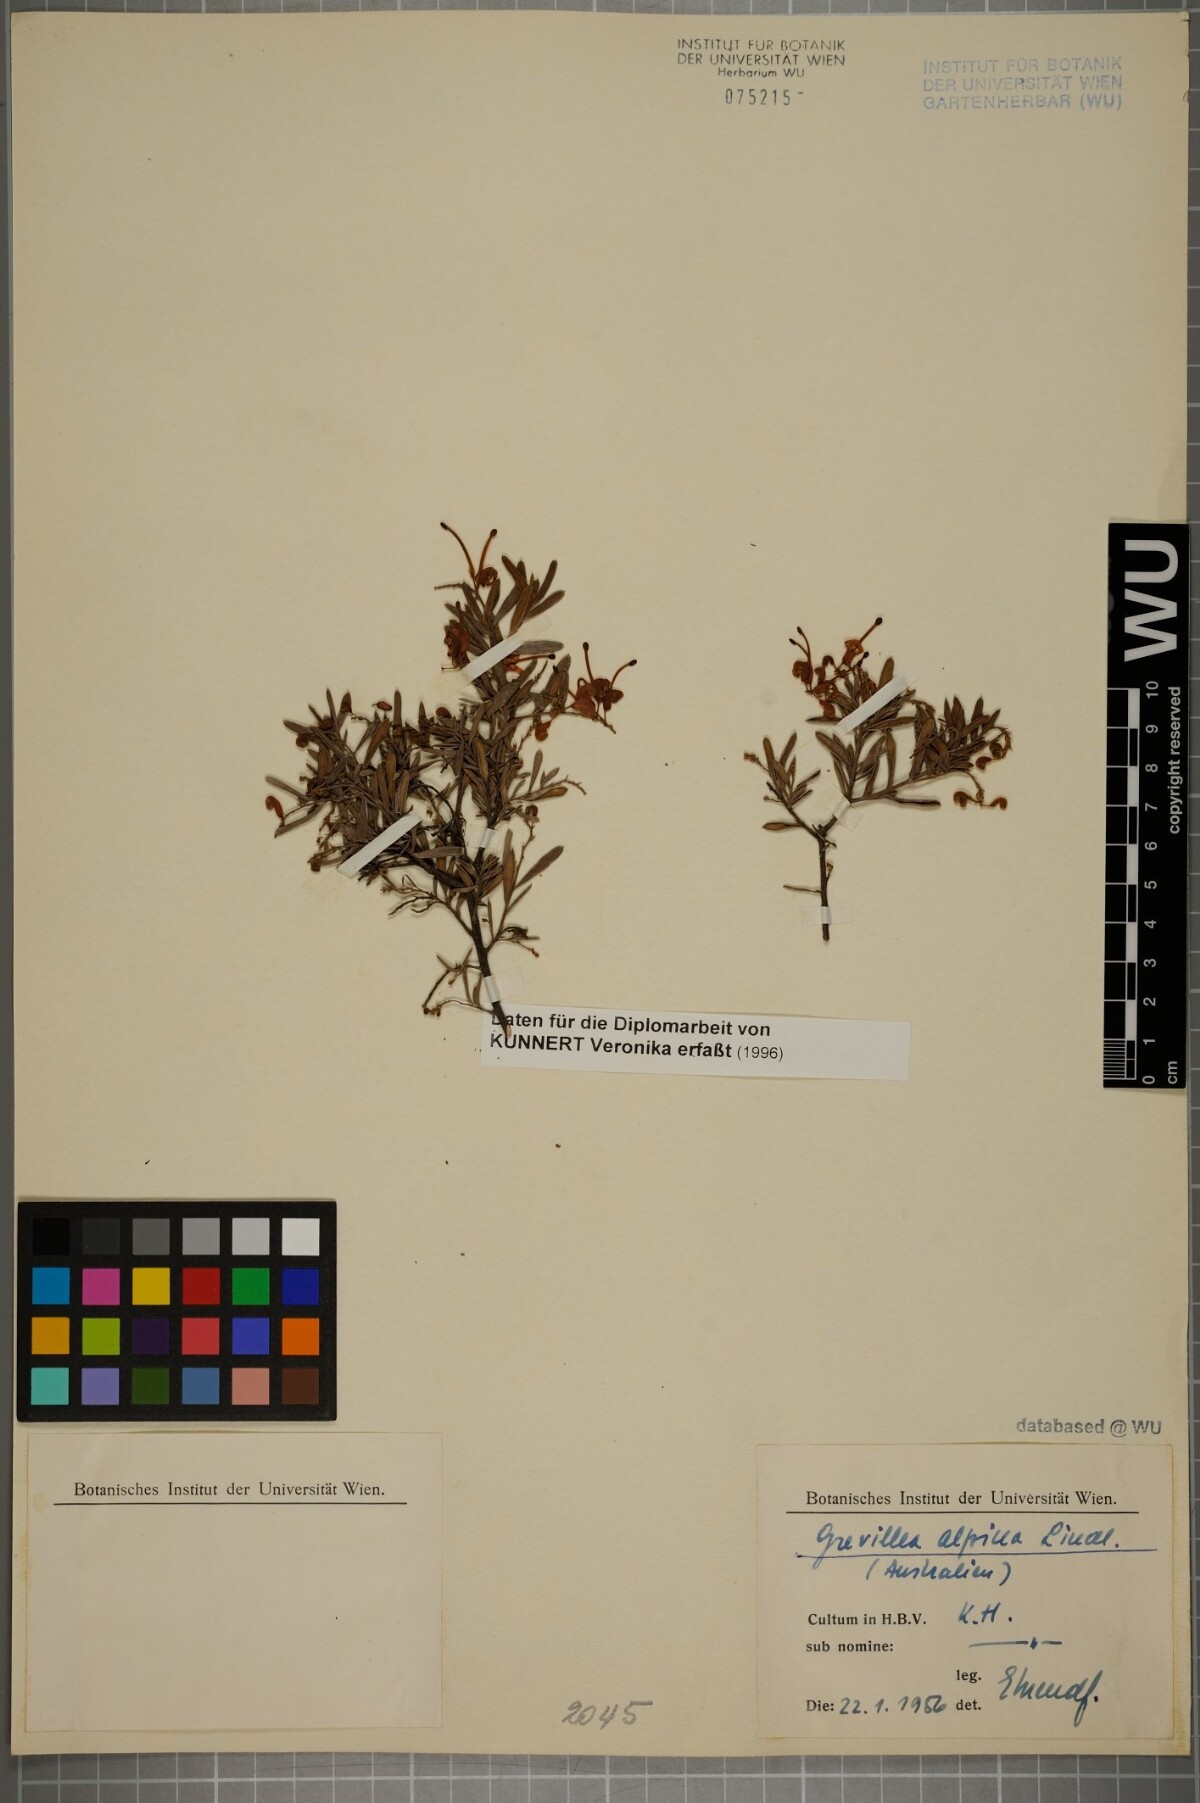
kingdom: Plantae
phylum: Tracheophyta
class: Magnoliopsida
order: Proteales
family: Proteaceae
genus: Grevillea
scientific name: Grevillea alpina
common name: Catclaws grevillea
